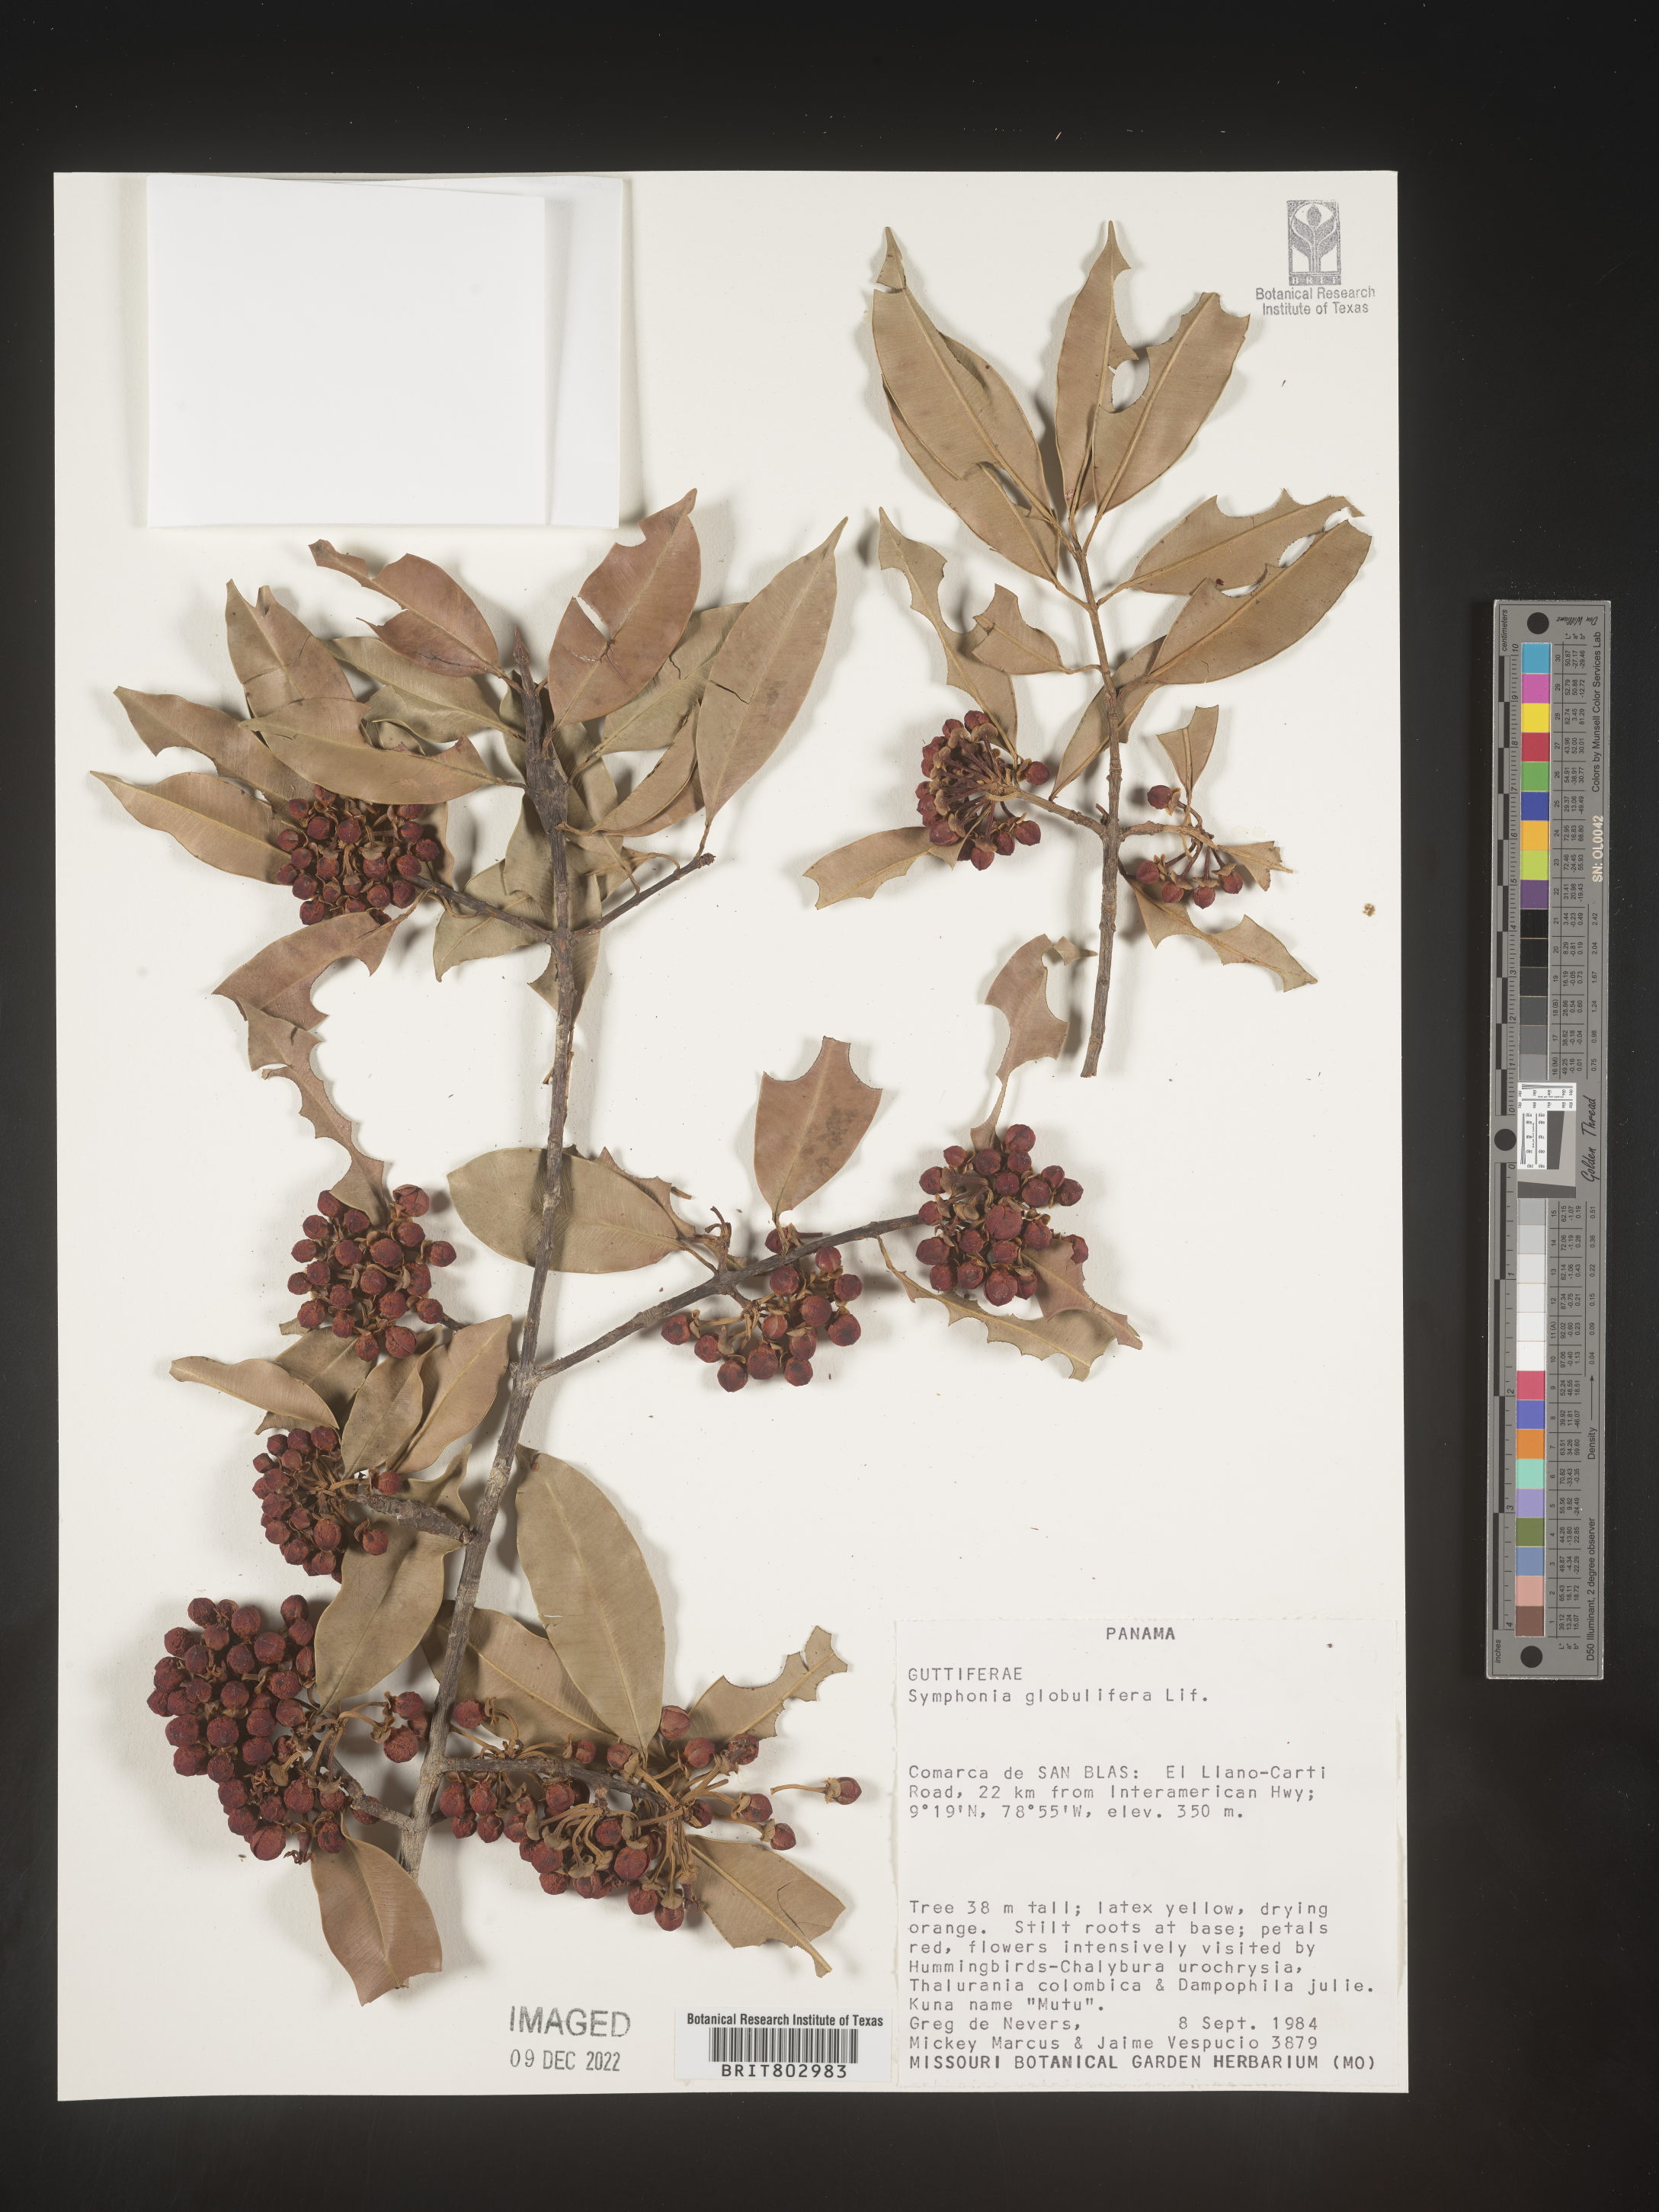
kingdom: Plantae
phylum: Tracheophyta
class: Magnoliopsida
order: Malpighiales
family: Clusiaceae
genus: Symphonia
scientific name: Symphonia globulifera
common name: Boarwood
